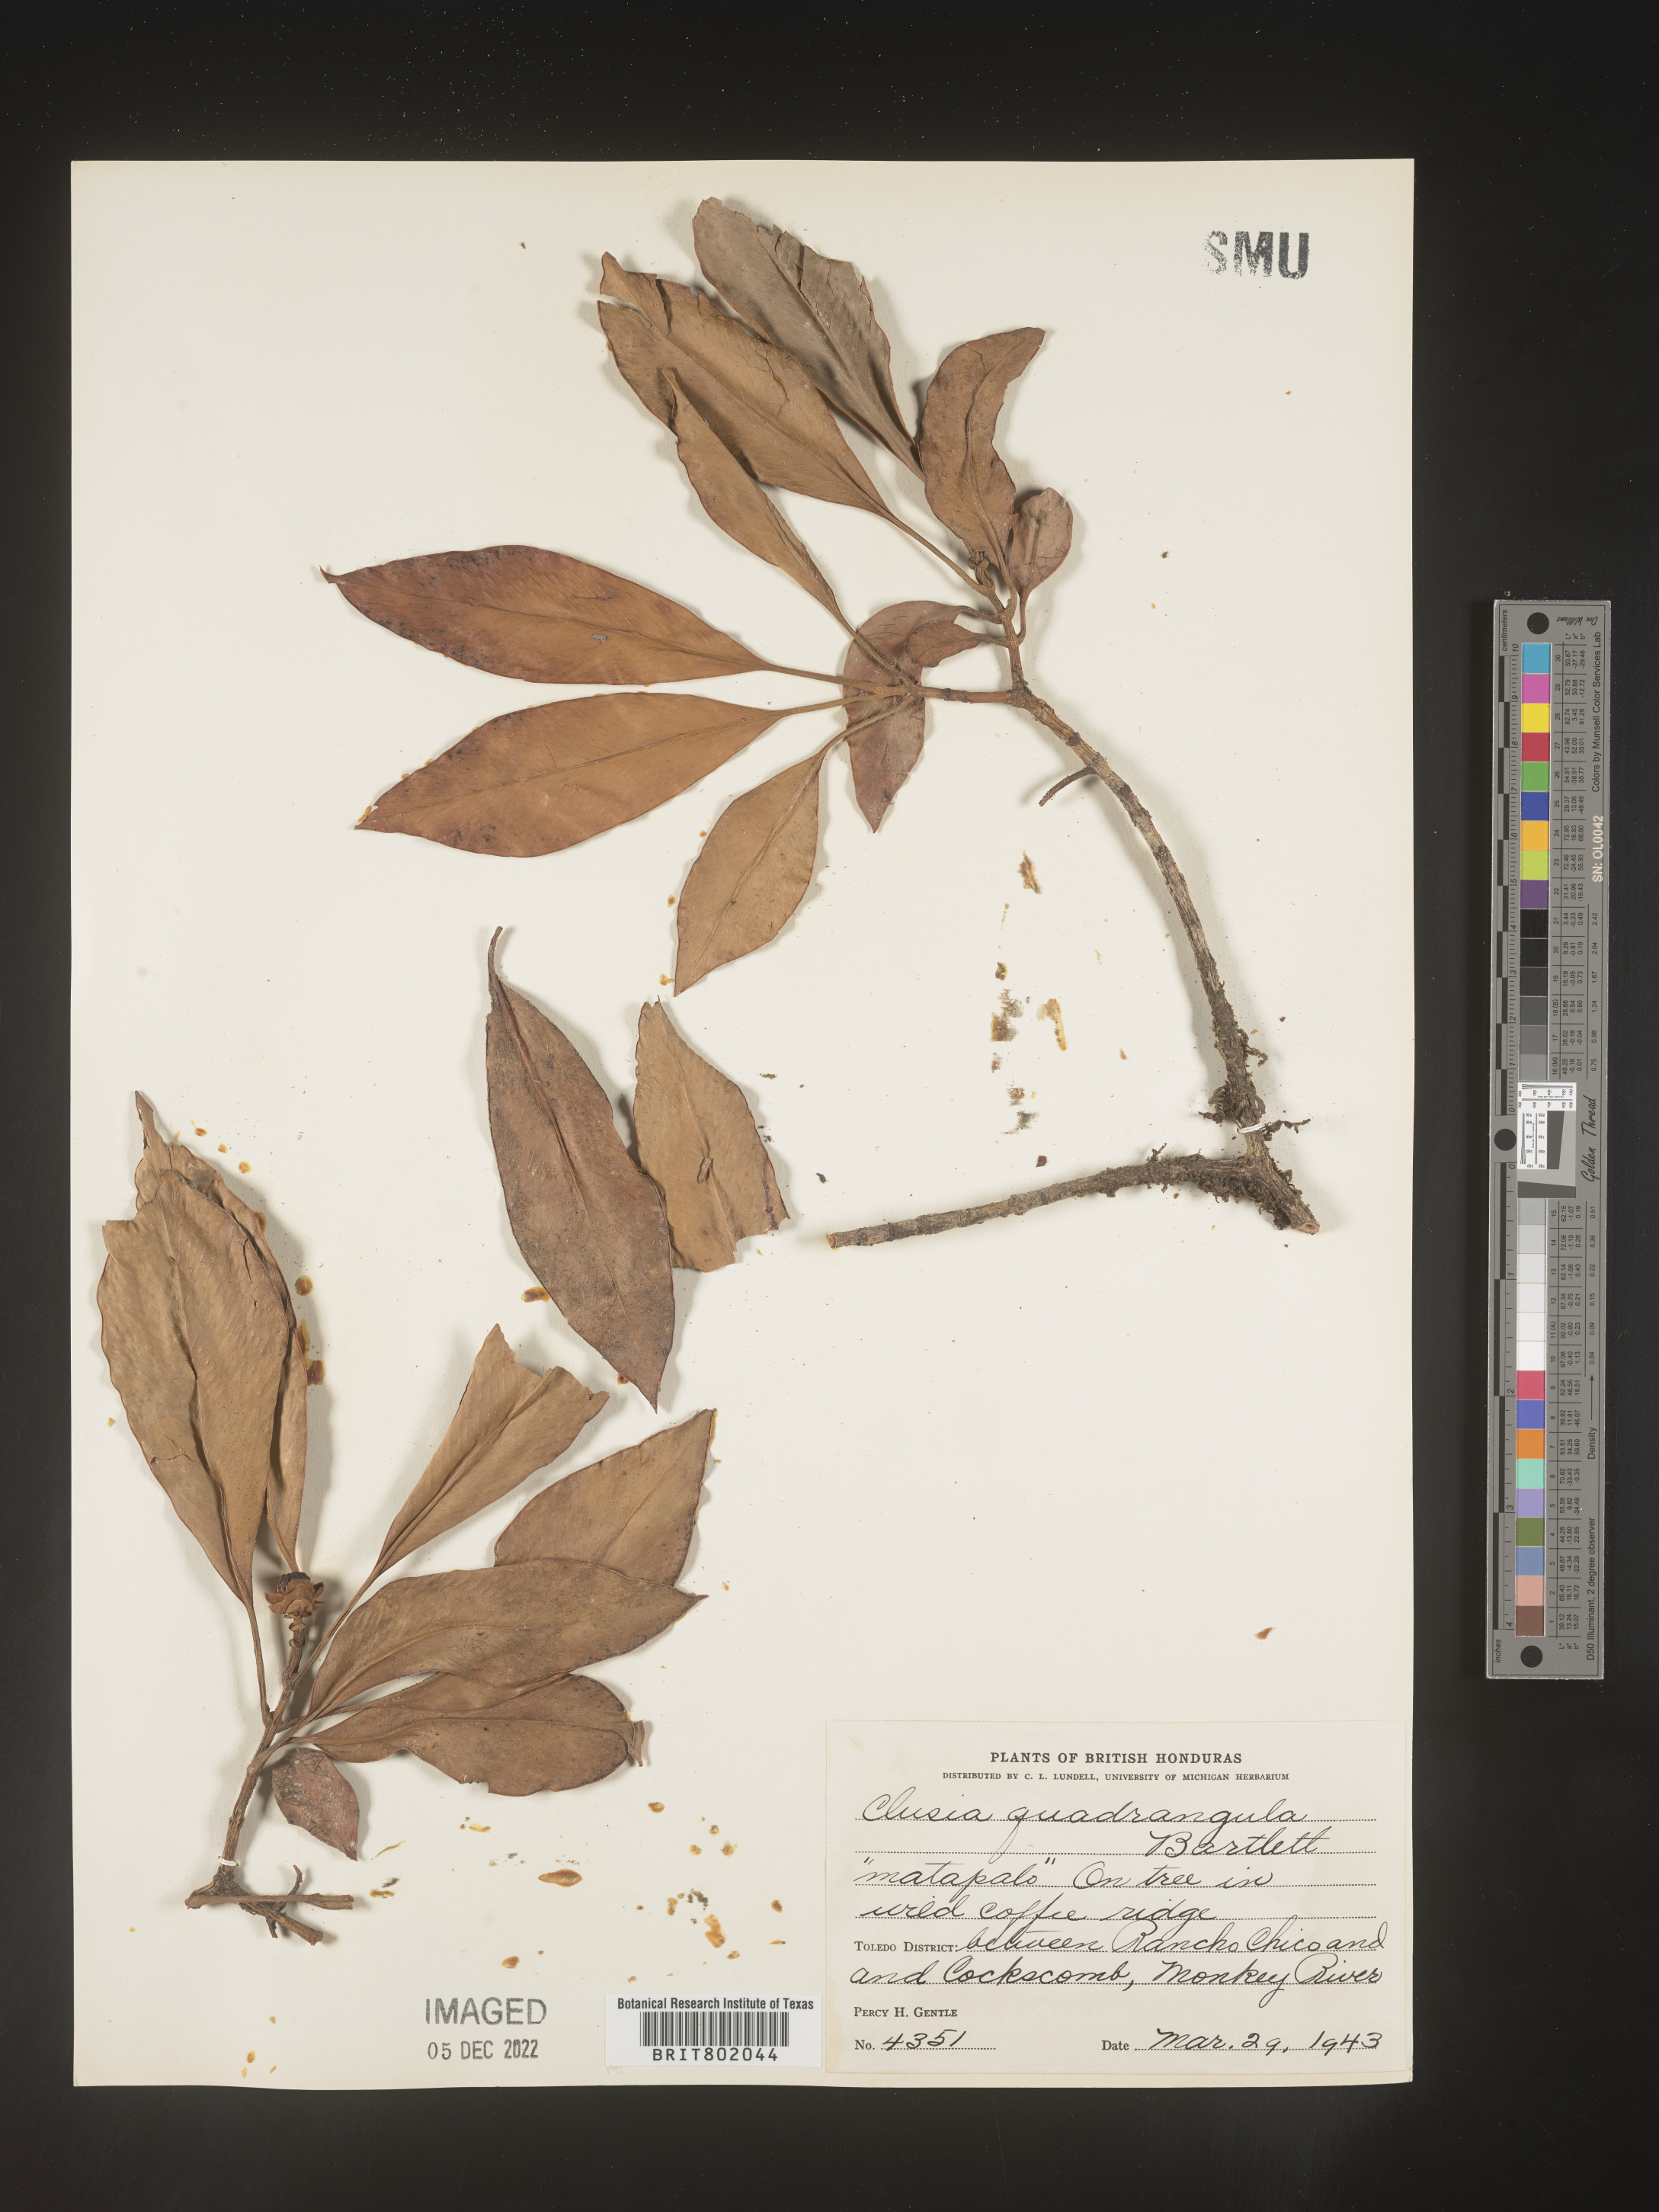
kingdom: Plantae
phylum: Tracheophyta
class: Magnoliopsida
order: Malpighiales
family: Clusiaceae
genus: Clusia
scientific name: Clusia
